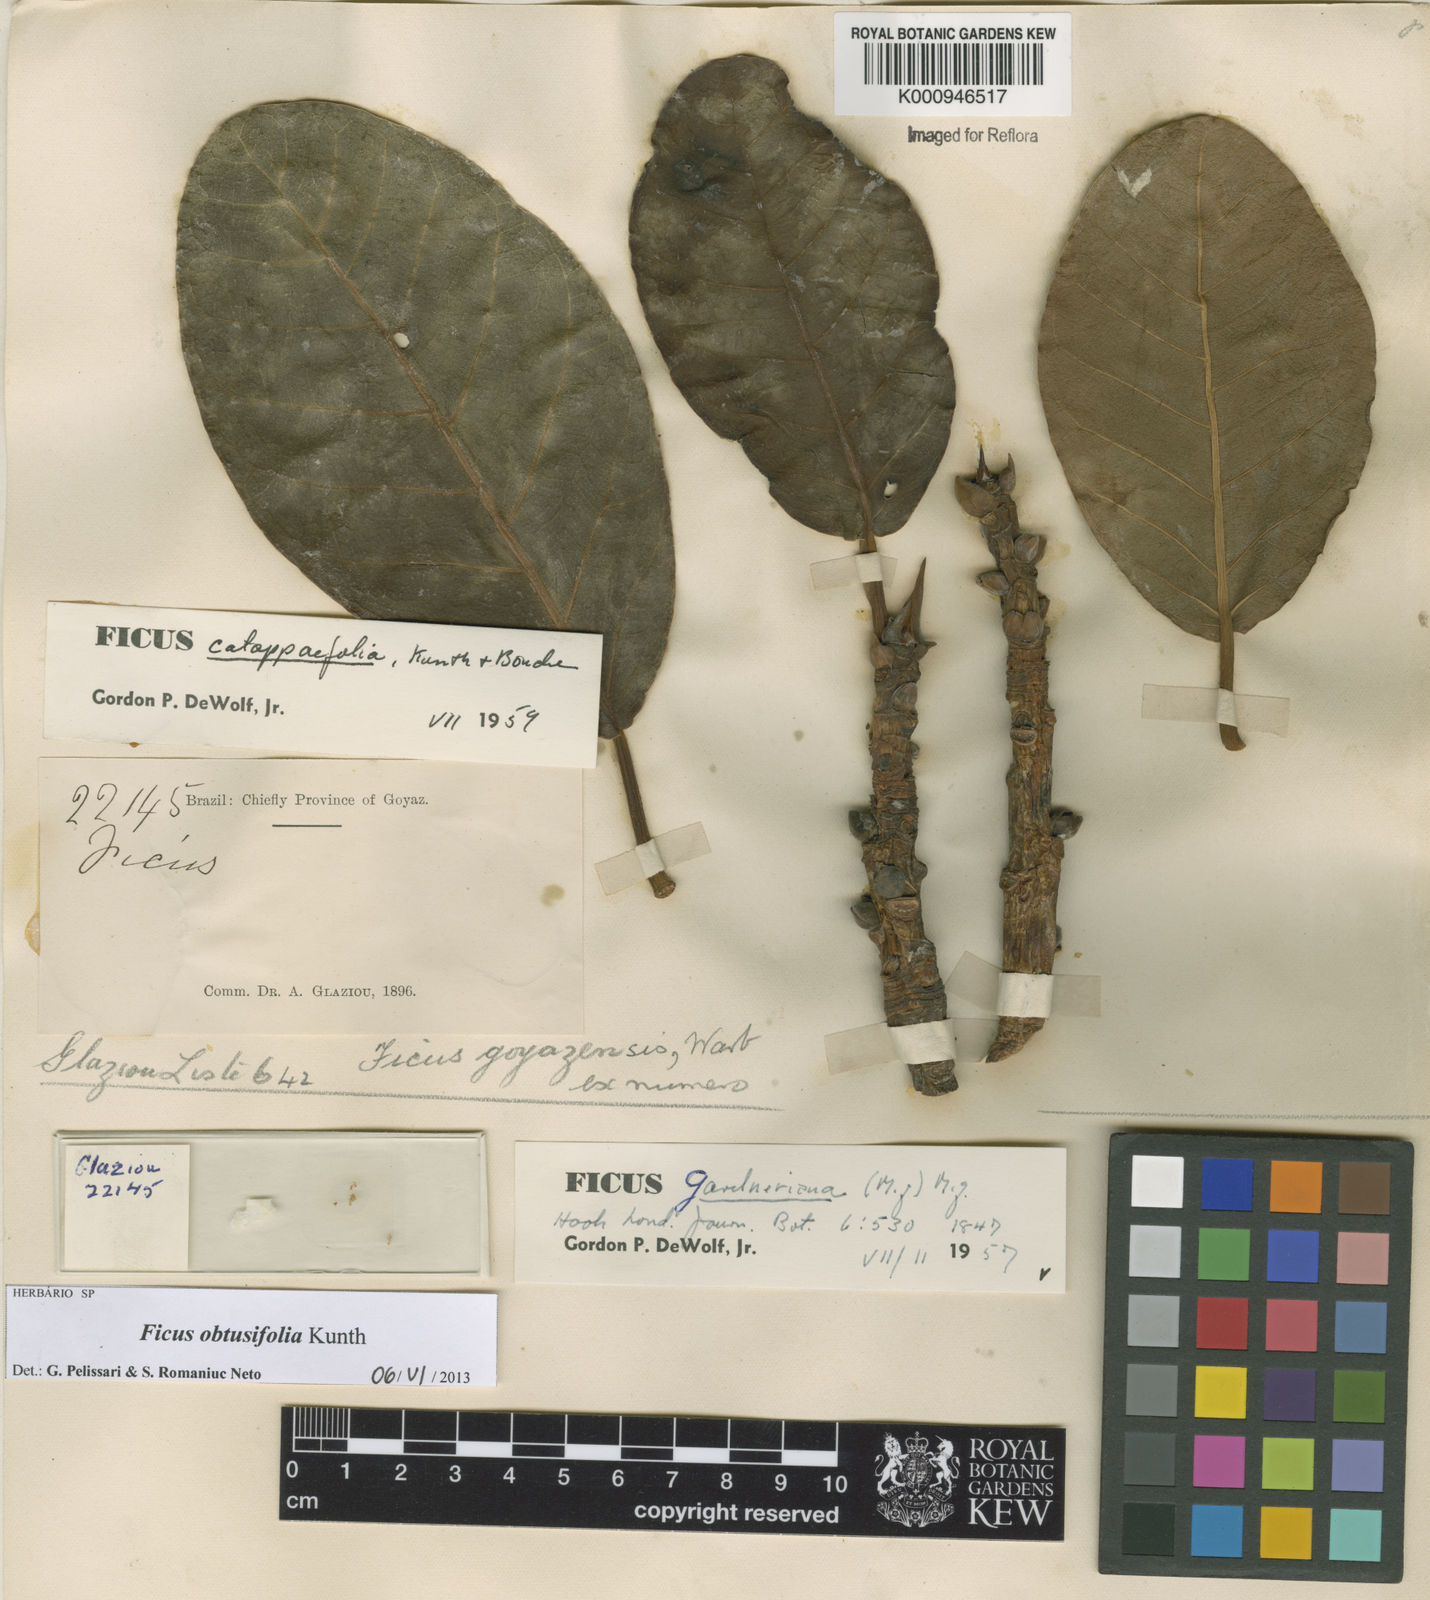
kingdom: Plantae
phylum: Tracheophyta
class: Magnoliopsida
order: Rosales
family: Moraceae
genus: Ficus
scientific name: Ficus obtusifolia
